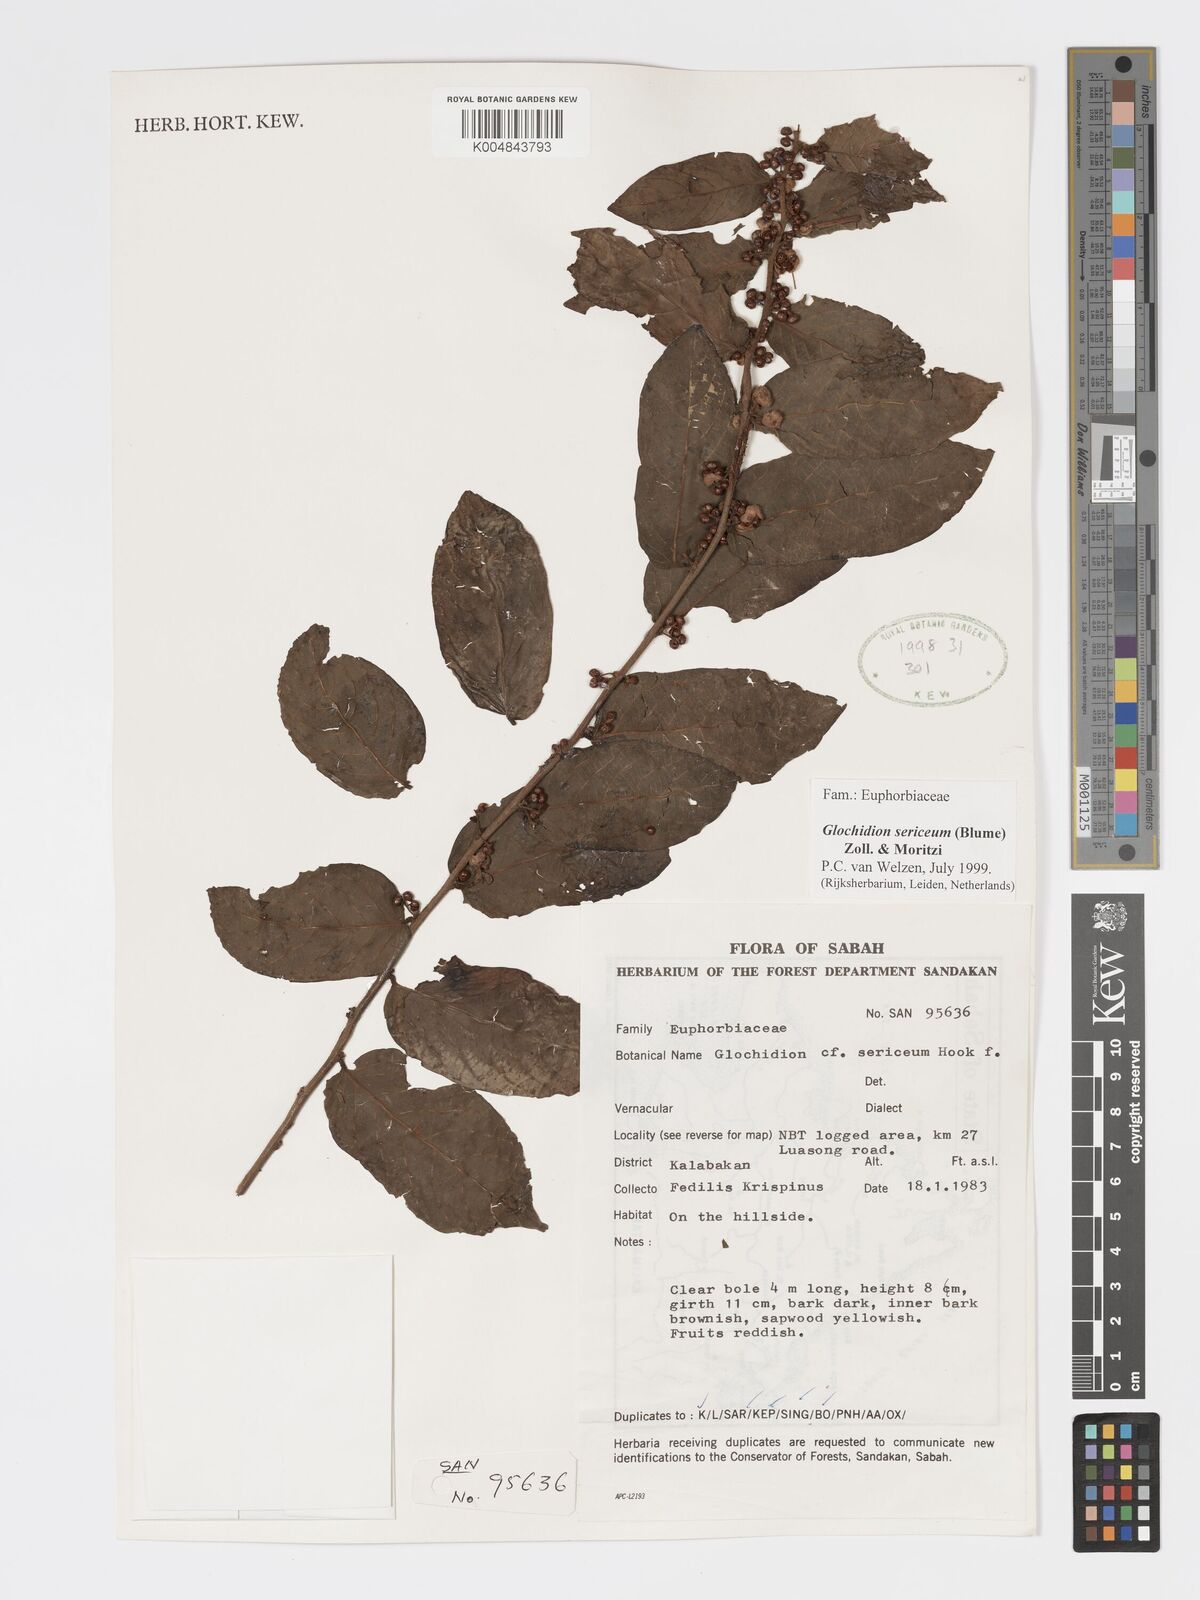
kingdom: Plantae
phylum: Tracheophyta
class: Magnoliopsida
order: Malpighiales
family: Phyllanthaceae
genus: Glochidion
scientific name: Glochidion sericeum
